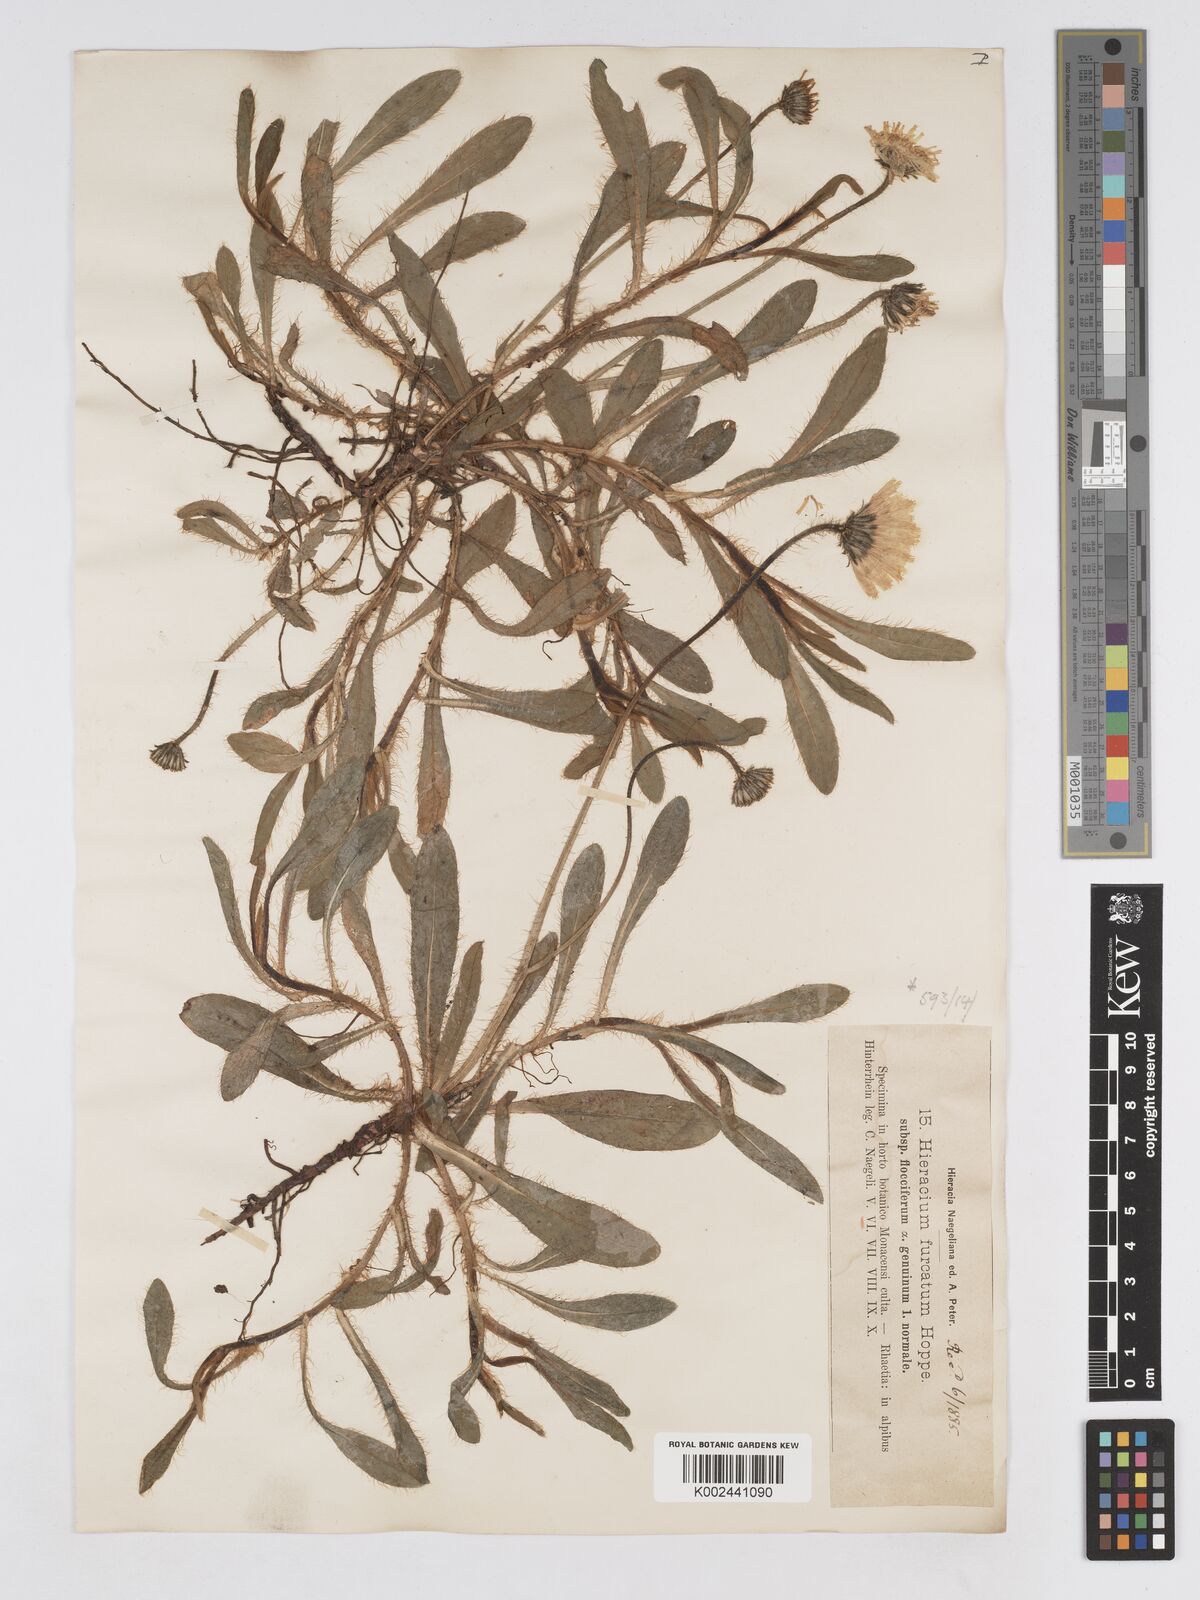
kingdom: Plantae
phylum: Tracheophyta
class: Magnoliopsida
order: Asterales
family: Asteraceae
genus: Pilosella
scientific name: Pilosella sphaerocephala
